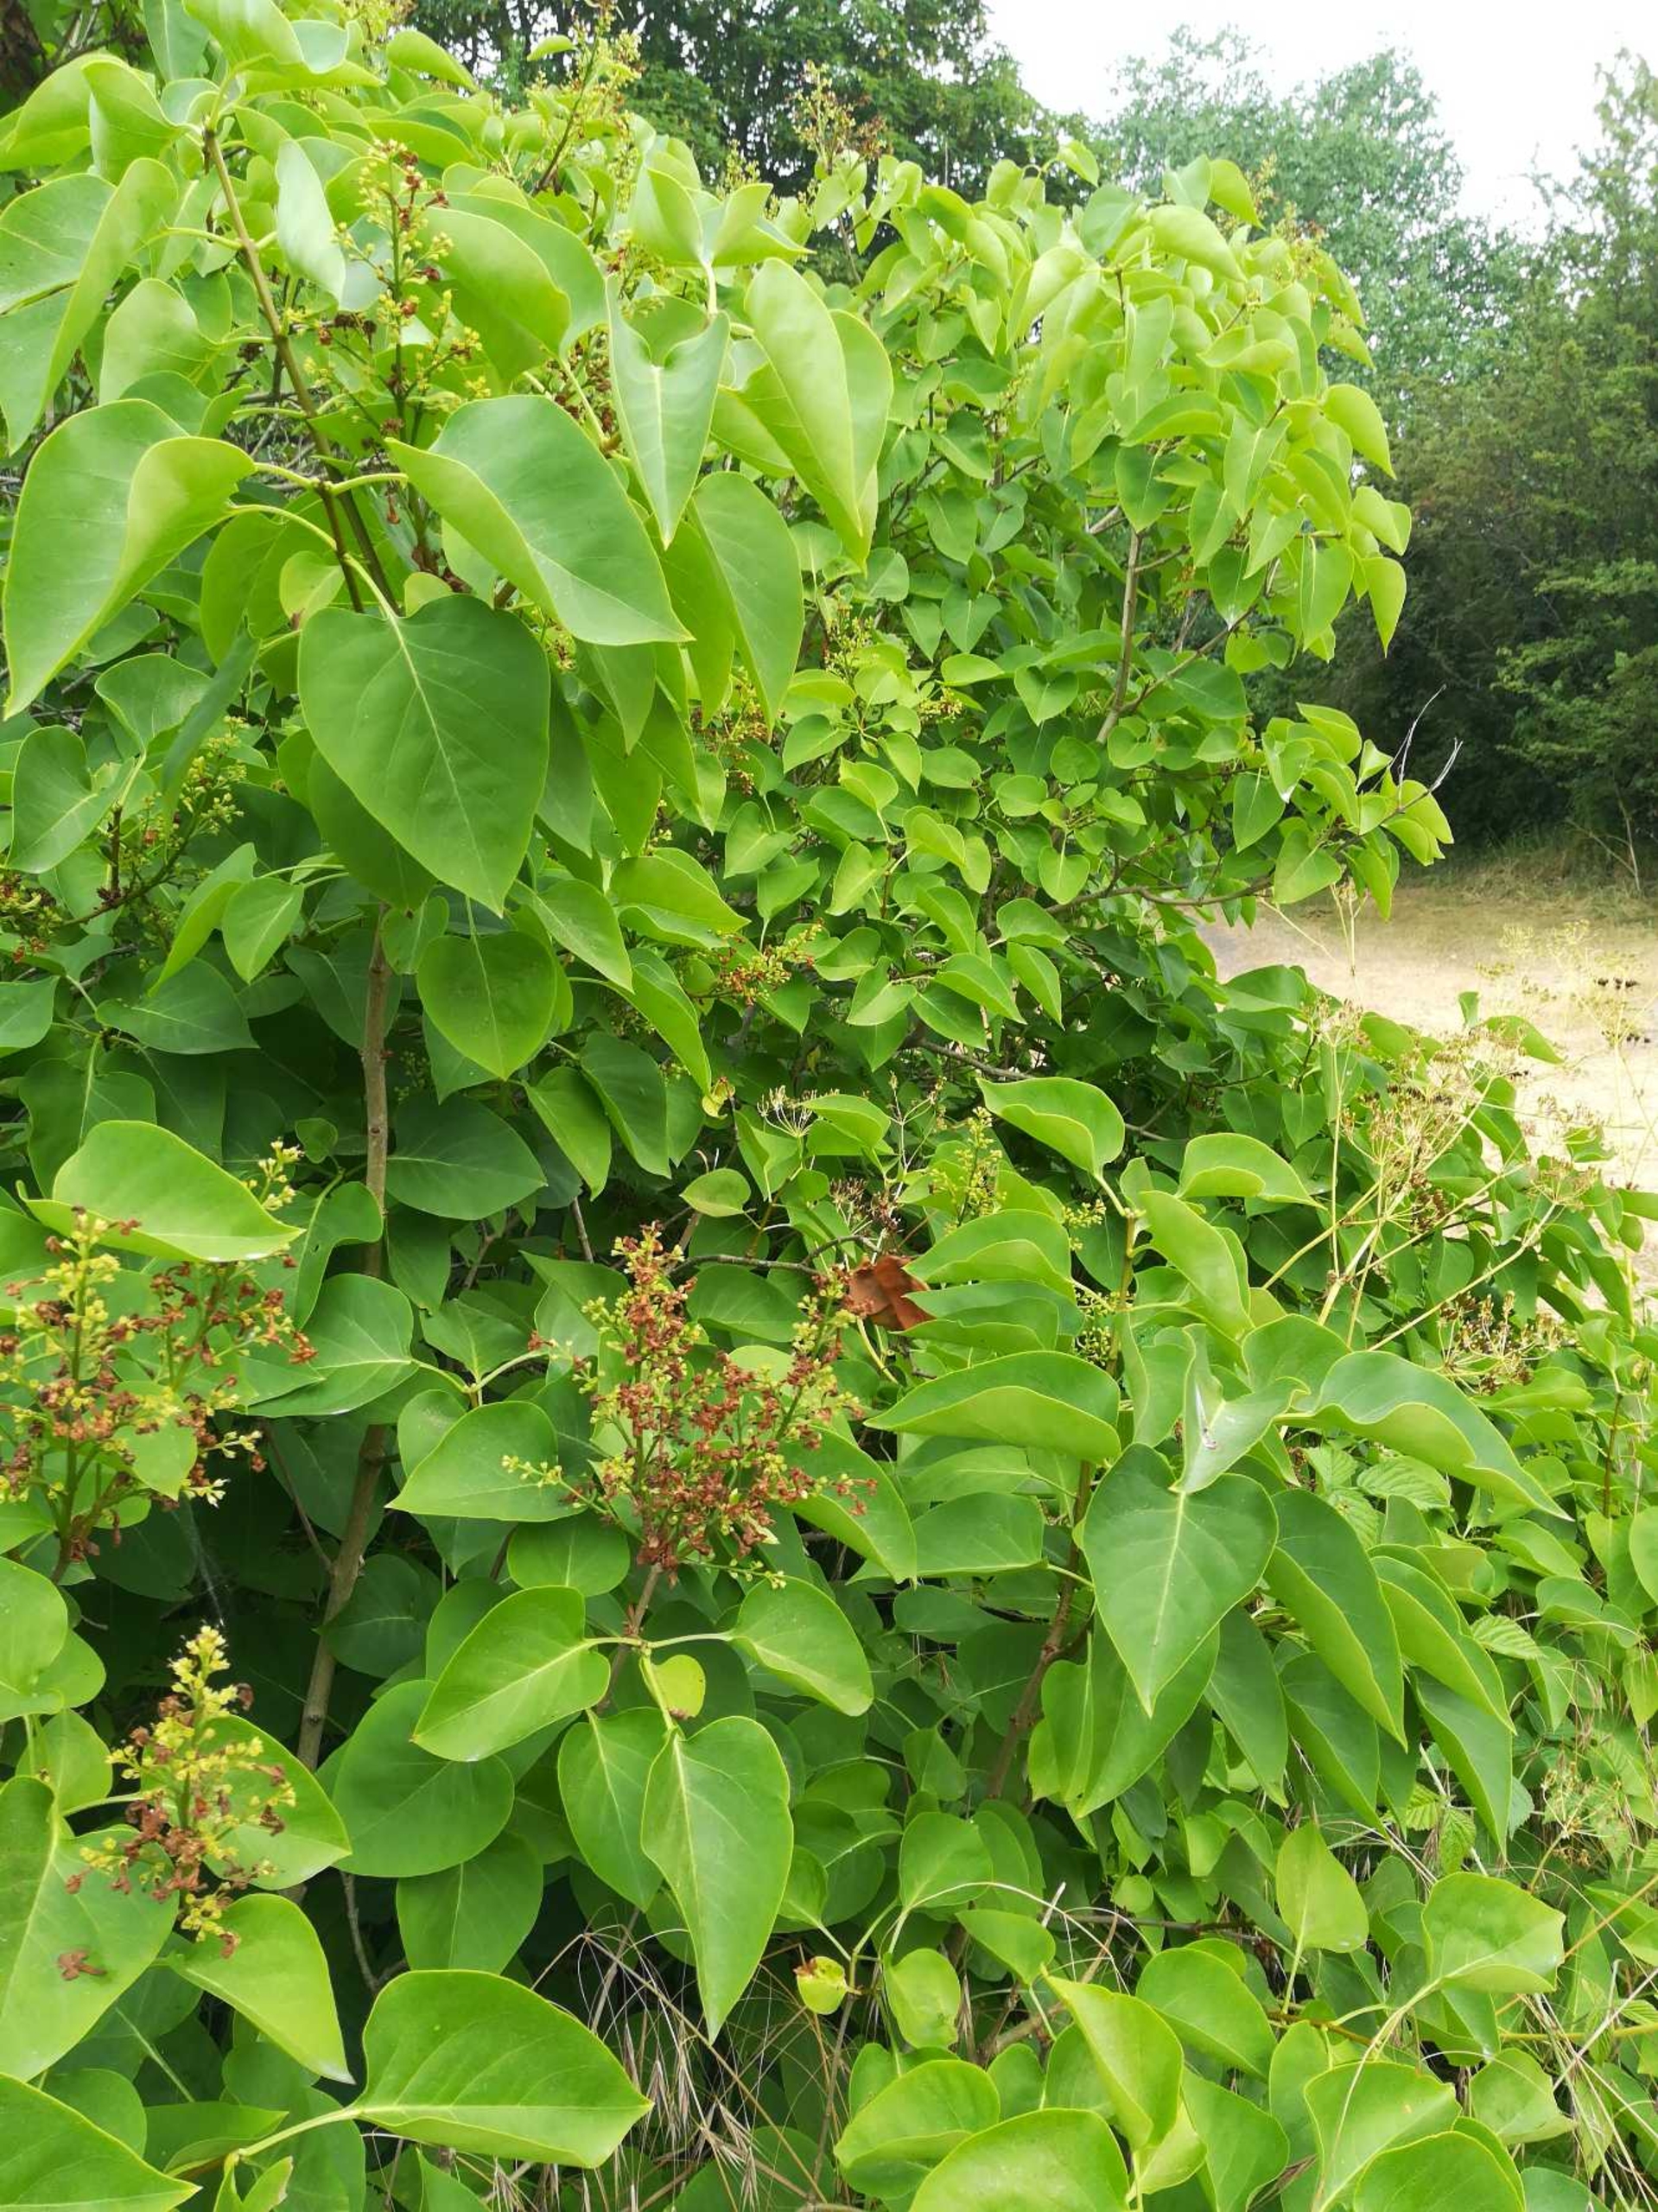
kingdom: Plantae
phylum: Tracheophyta
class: Magnoliopsida
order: Lamiales
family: Oleaceae
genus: Syringa
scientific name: Syringa vulgaris
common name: Syren
